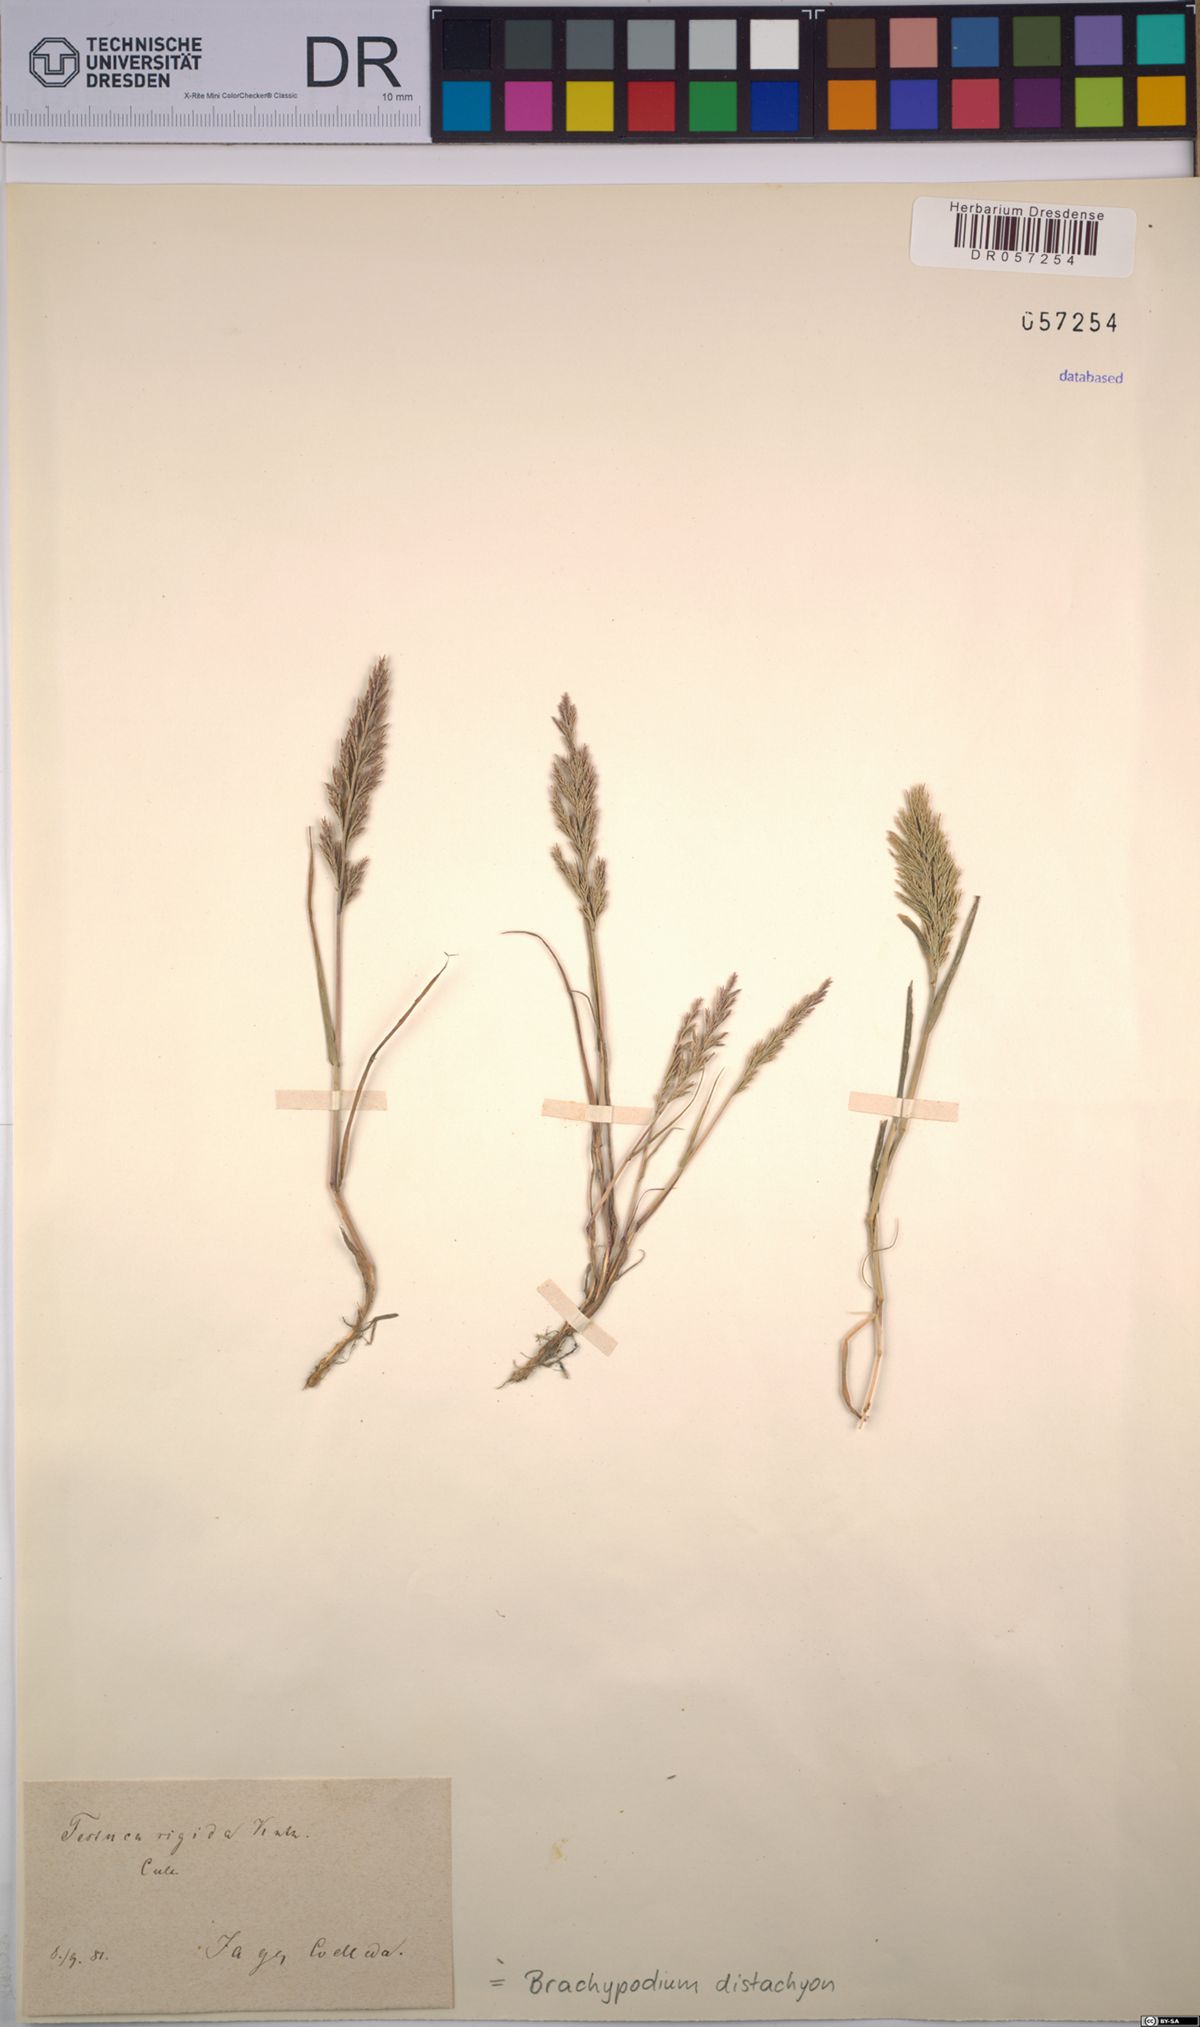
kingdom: Plantae
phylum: Tracheophyta
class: Liliopsida
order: Poales
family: Poaceae
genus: Brachypodium
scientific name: Brachypodium distachyon
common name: Stiff brome
